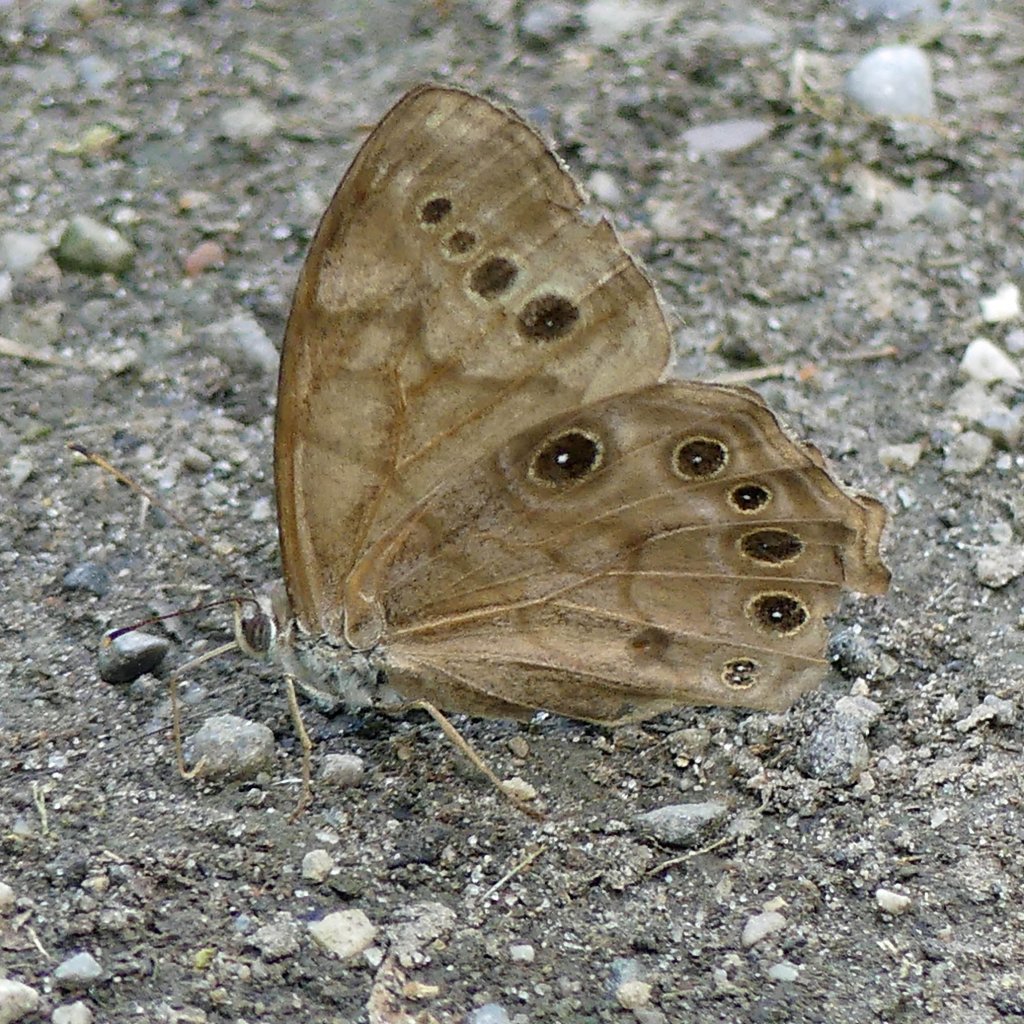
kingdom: Animalia
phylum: Arthropoda
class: Insecta
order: Lepidoptera
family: Nymphalidae
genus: Lethe
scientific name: Lethe anthedon
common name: Northern Pearly-Eye
